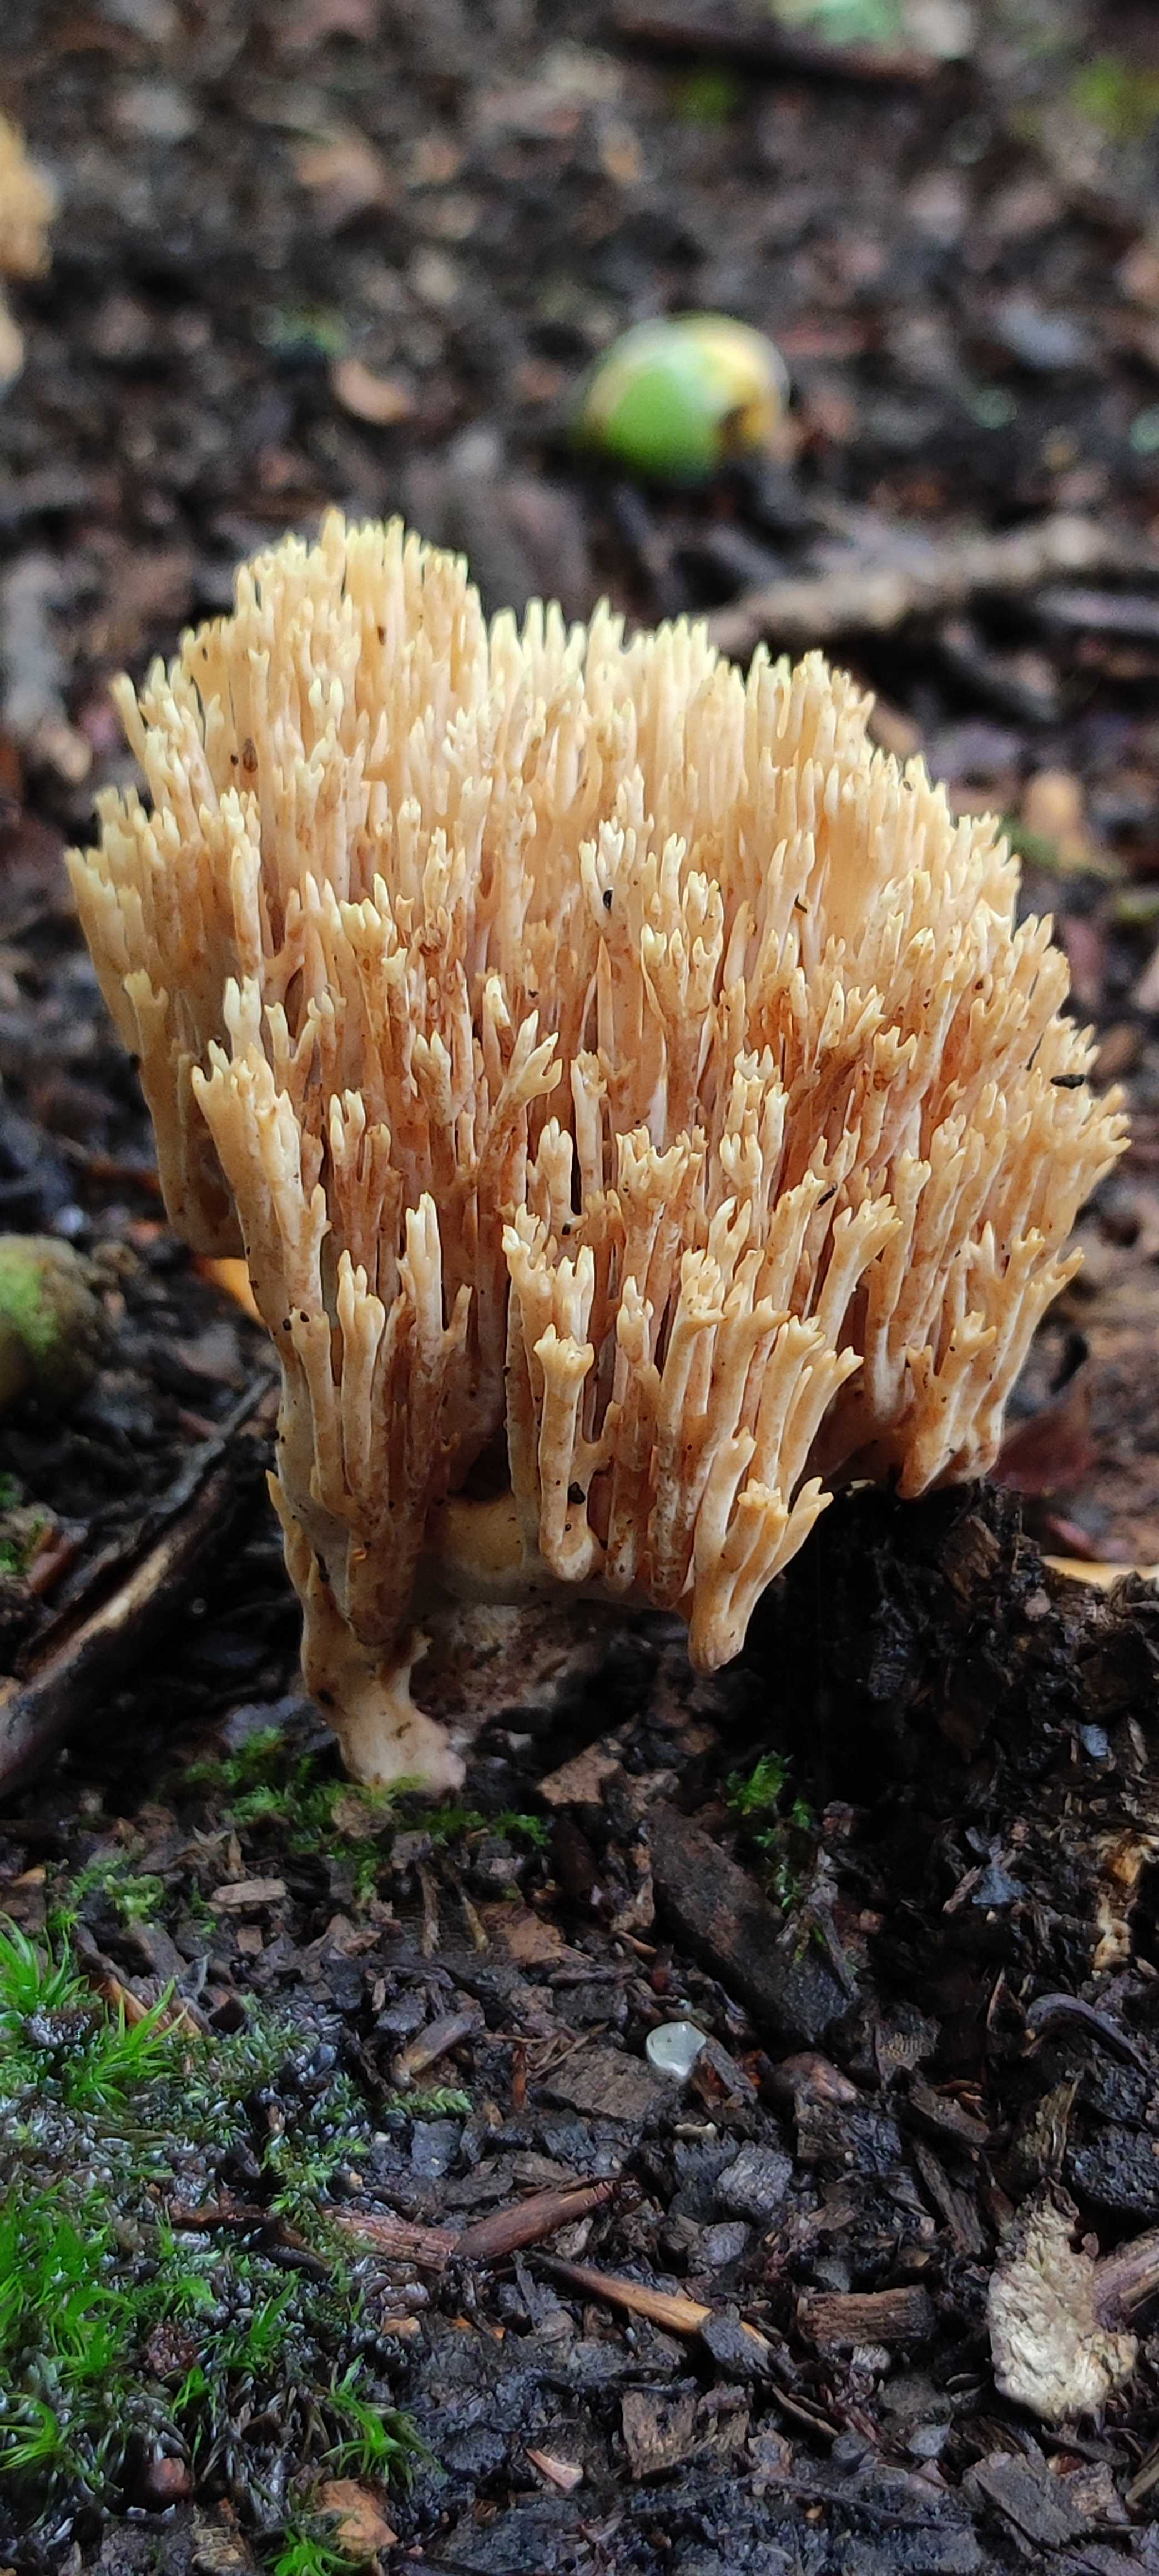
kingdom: Fungi
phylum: Basidiomycota
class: Agaricomycetes
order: Gomphales
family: Gomphaceae
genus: Ramaria
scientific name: Ramaria
